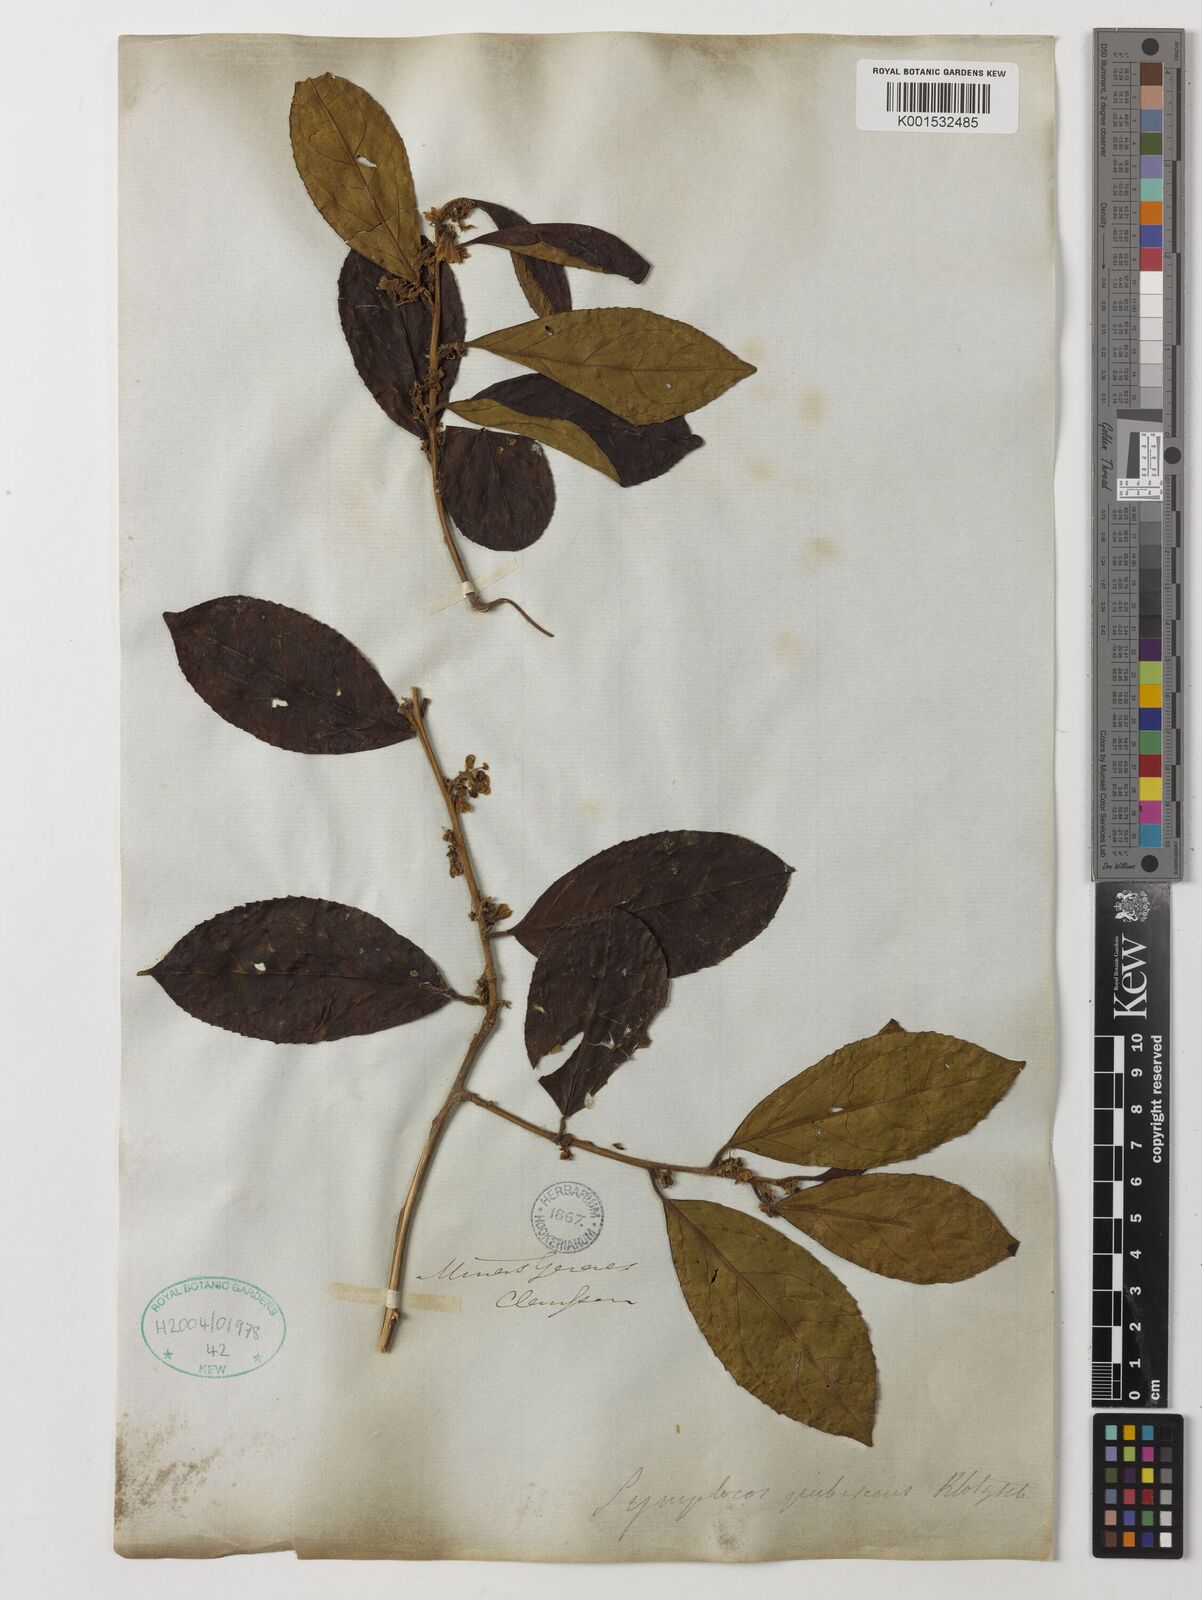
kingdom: Plantae
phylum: Tracheophyta
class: Magnoliopsida
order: Ericales
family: Symplocaceae
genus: Symplocos
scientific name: Symplocos pubescens
